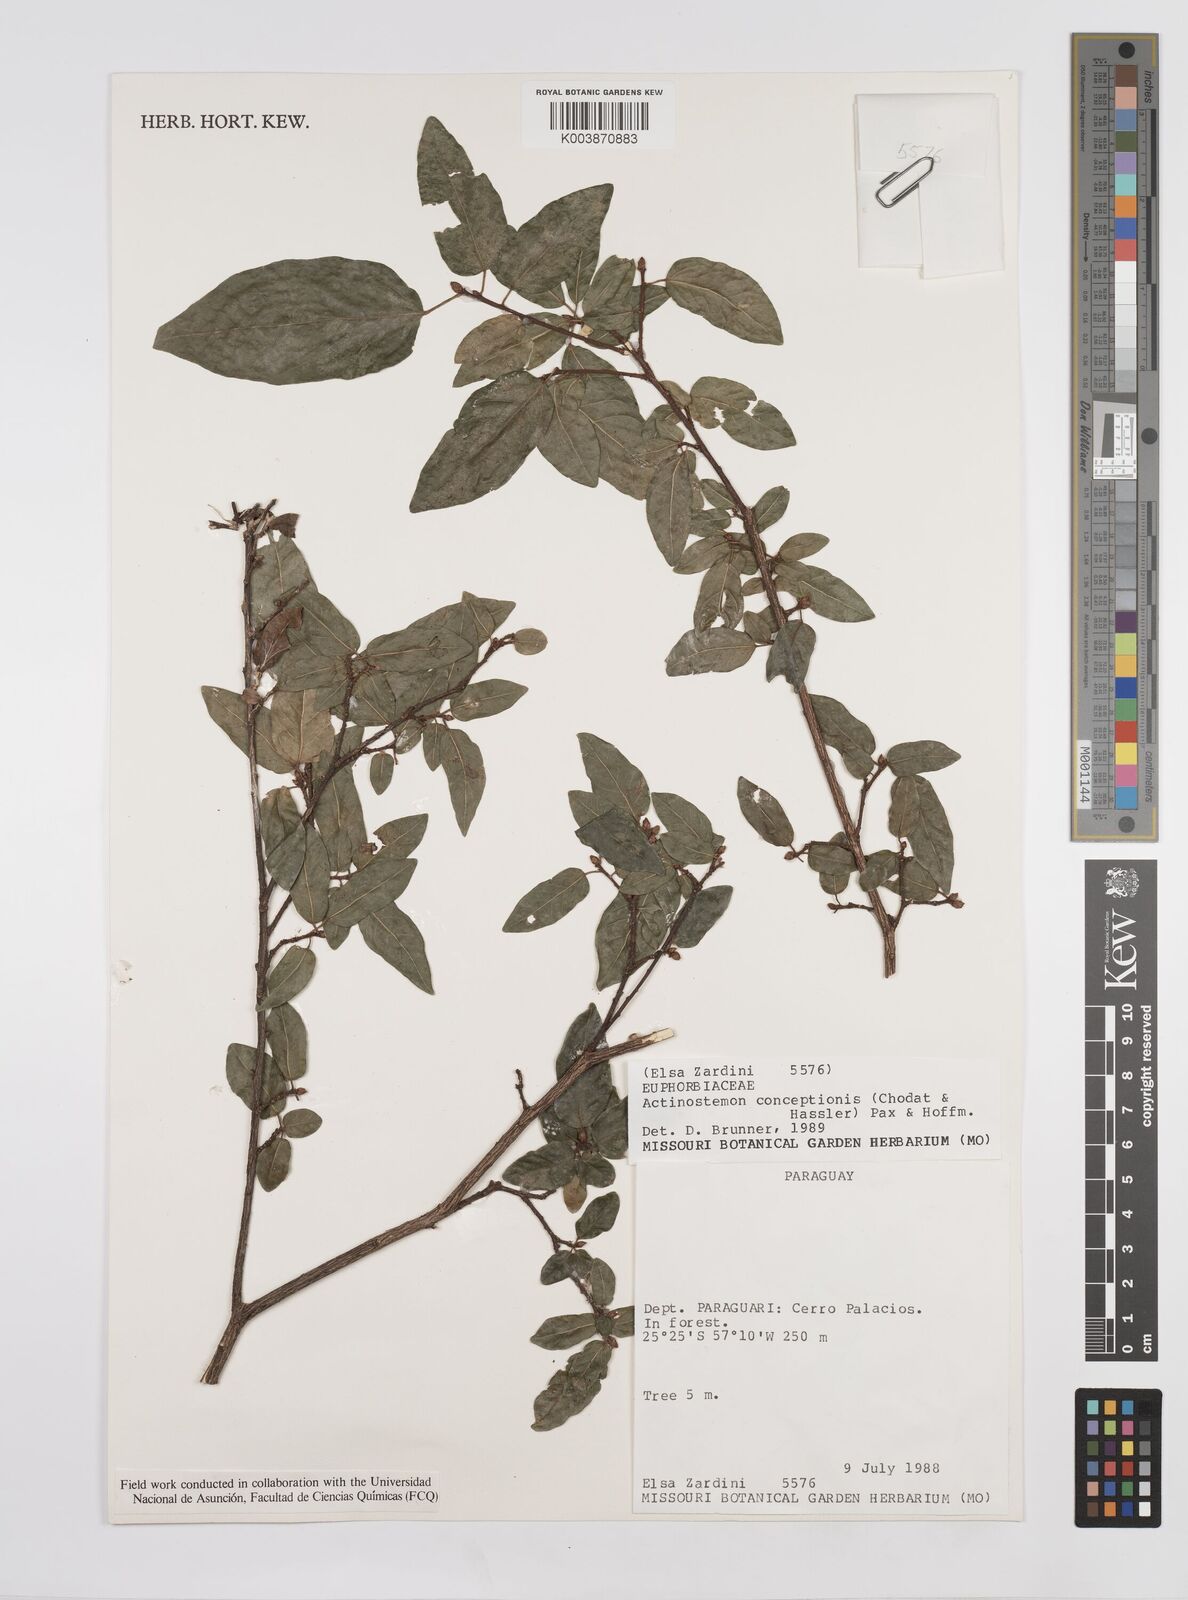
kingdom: Plantae
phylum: Tracheophyta
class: Magnoliopsida
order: Malpighiales
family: Euphorbiaceae
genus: Actinostemon
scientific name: Actinostemon concepcionis
